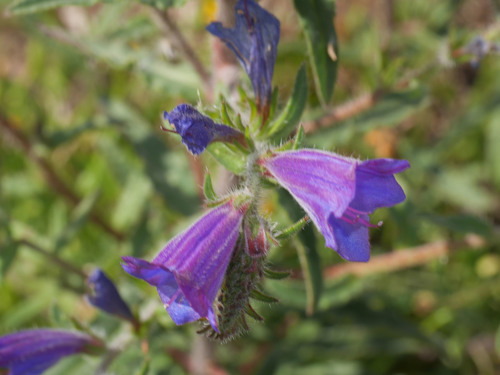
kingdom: Plantae
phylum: Tracheophyta
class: Magnoliopsida
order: Boraginales
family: Boraginaceae
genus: Echium
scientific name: Echium vulgare
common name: Common viper's bugloss
